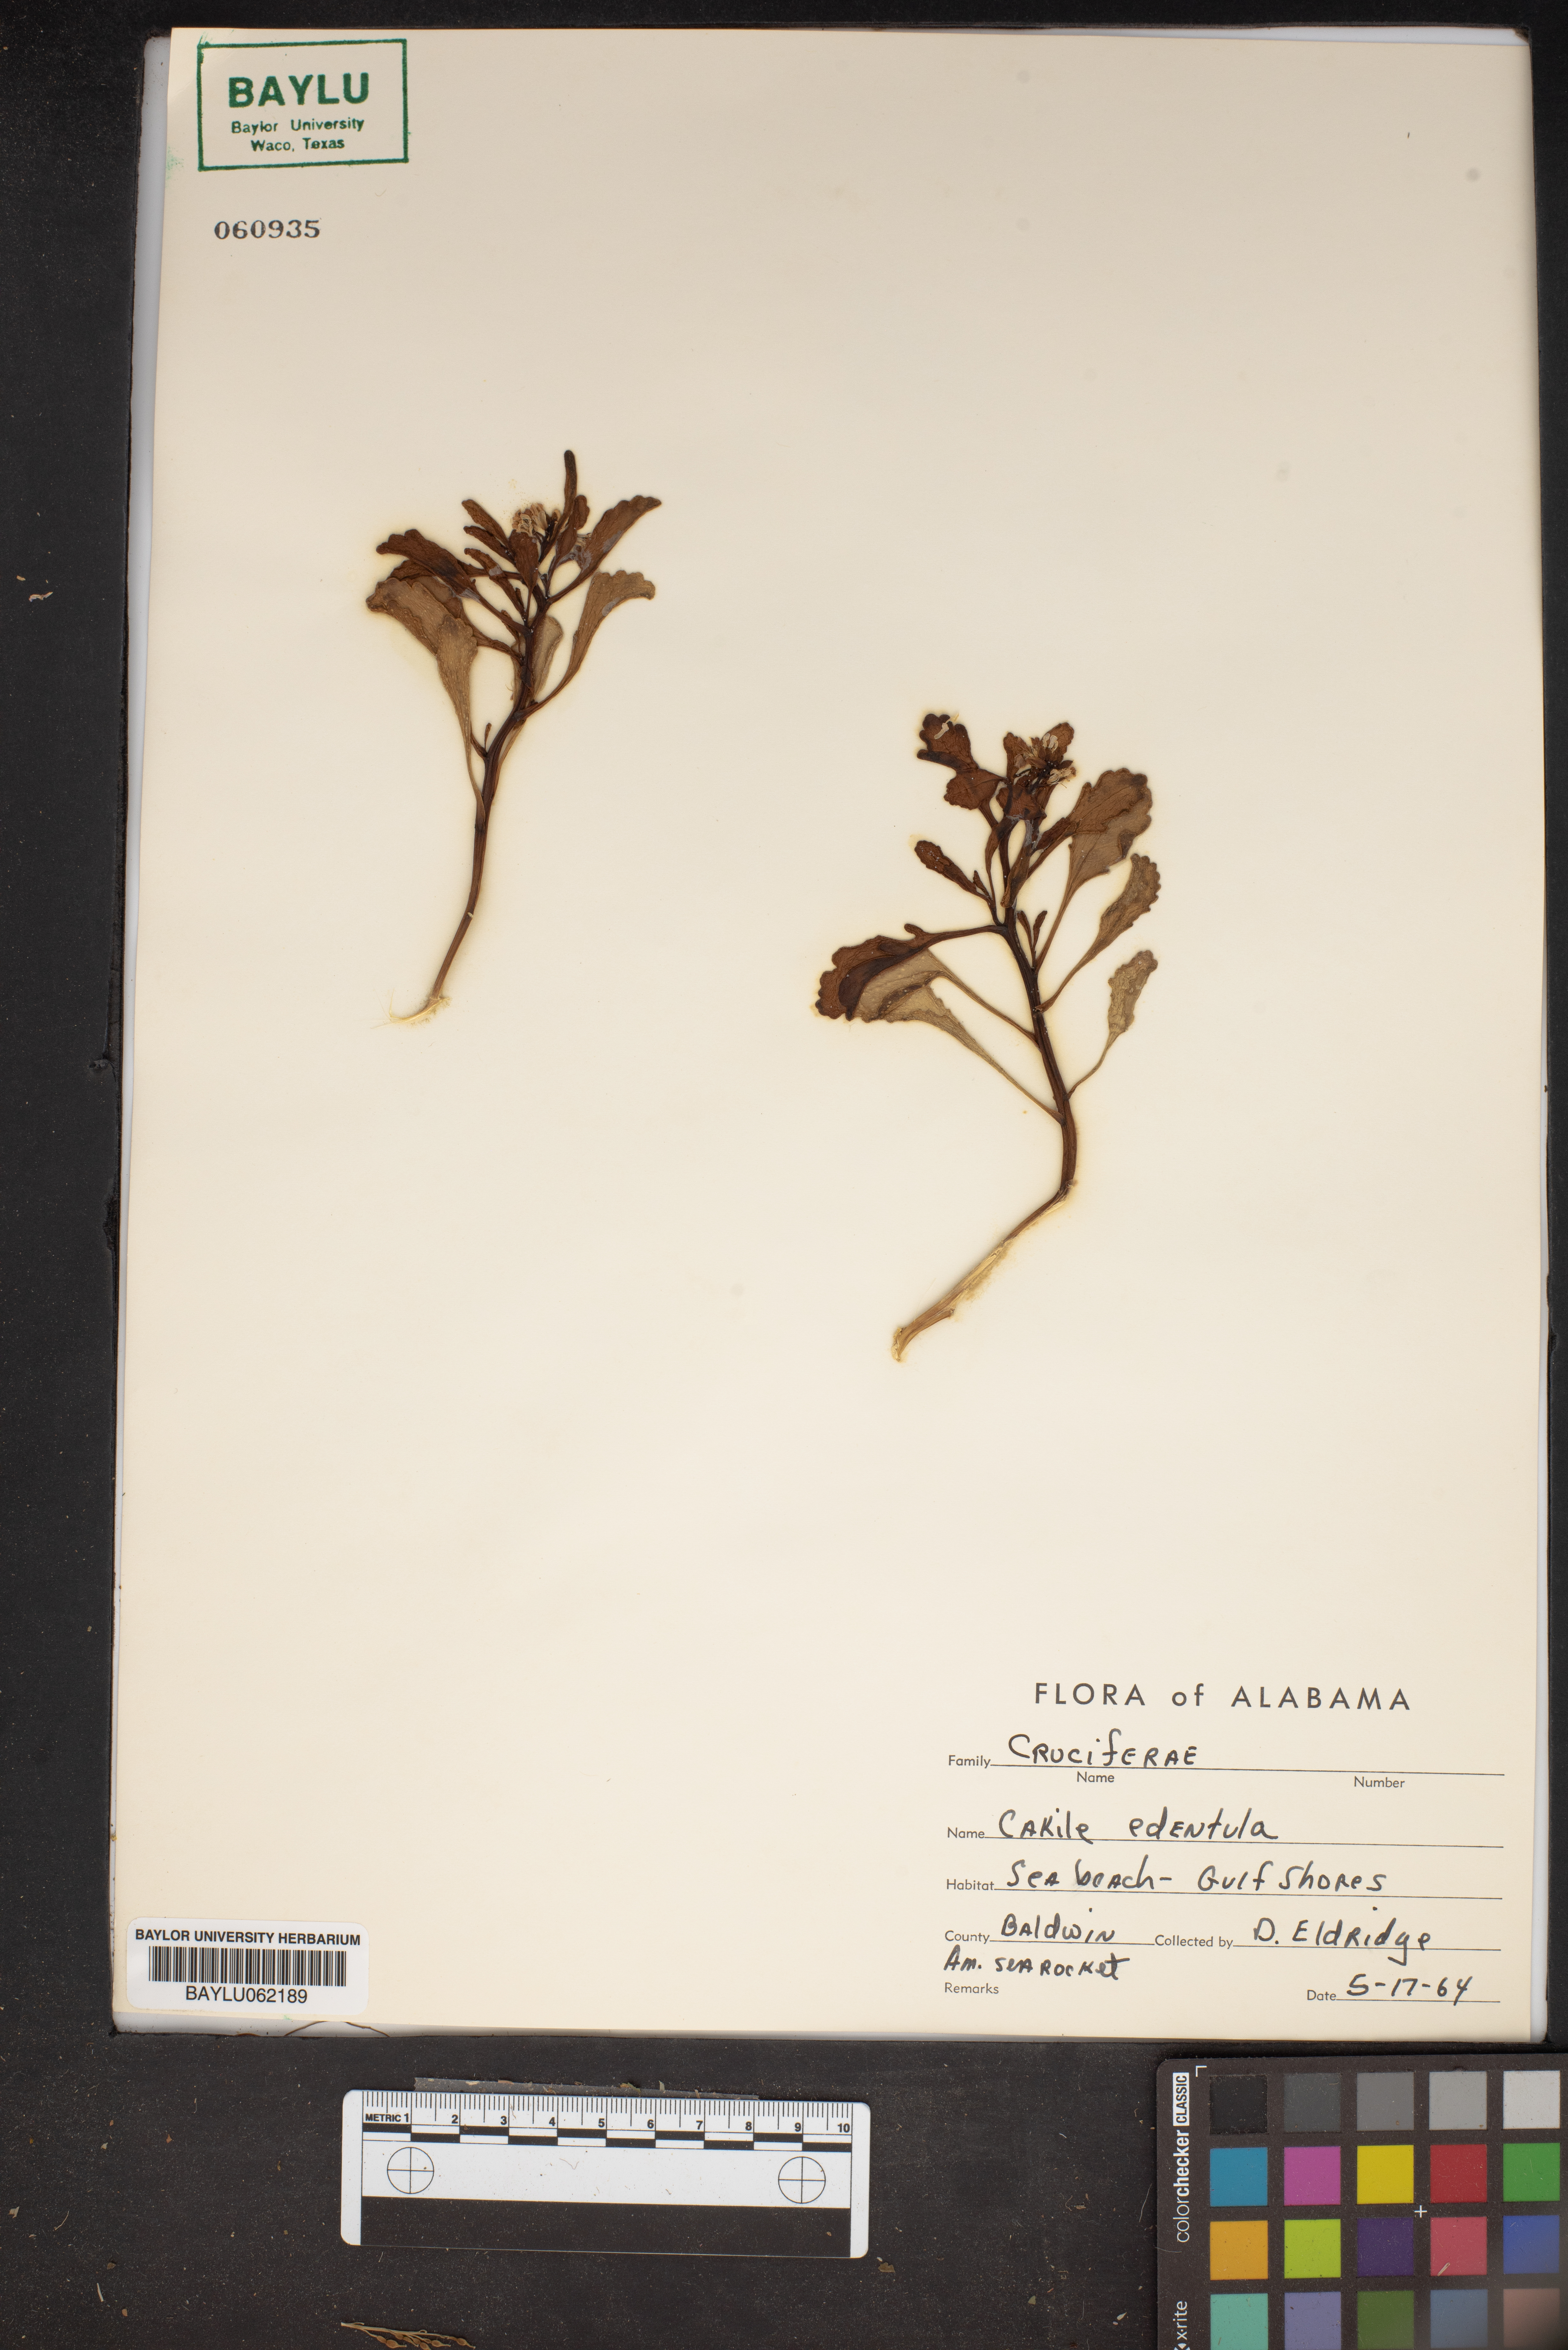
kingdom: Plantae
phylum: Tracheophyta
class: Magnoliopsida
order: Brassicales
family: Brassicaceae
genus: Cakile
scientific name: Cakile edentula
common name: American sea rocket
